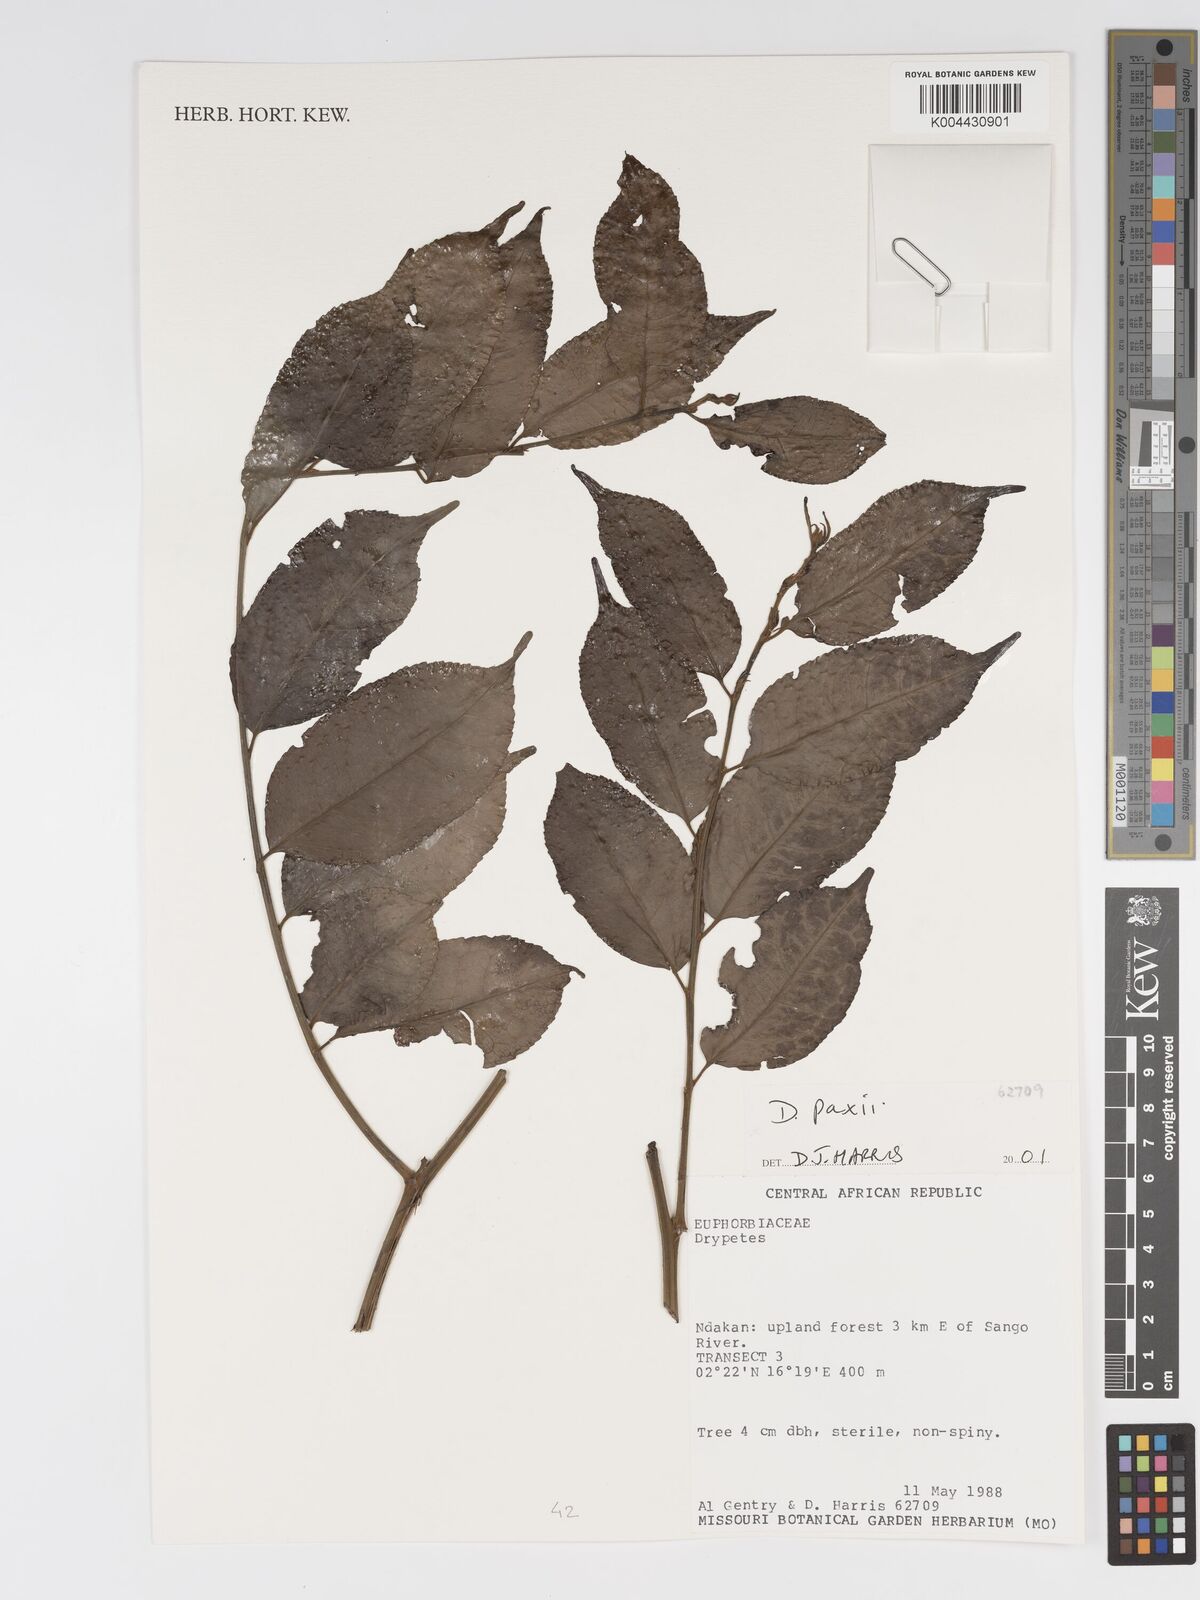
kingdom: Plantae
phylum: Tracheophyta
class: Magnoliopsida
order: Malpighiales
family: Putranjivaceae
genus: Drypetes
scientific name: Drypetes paxii
